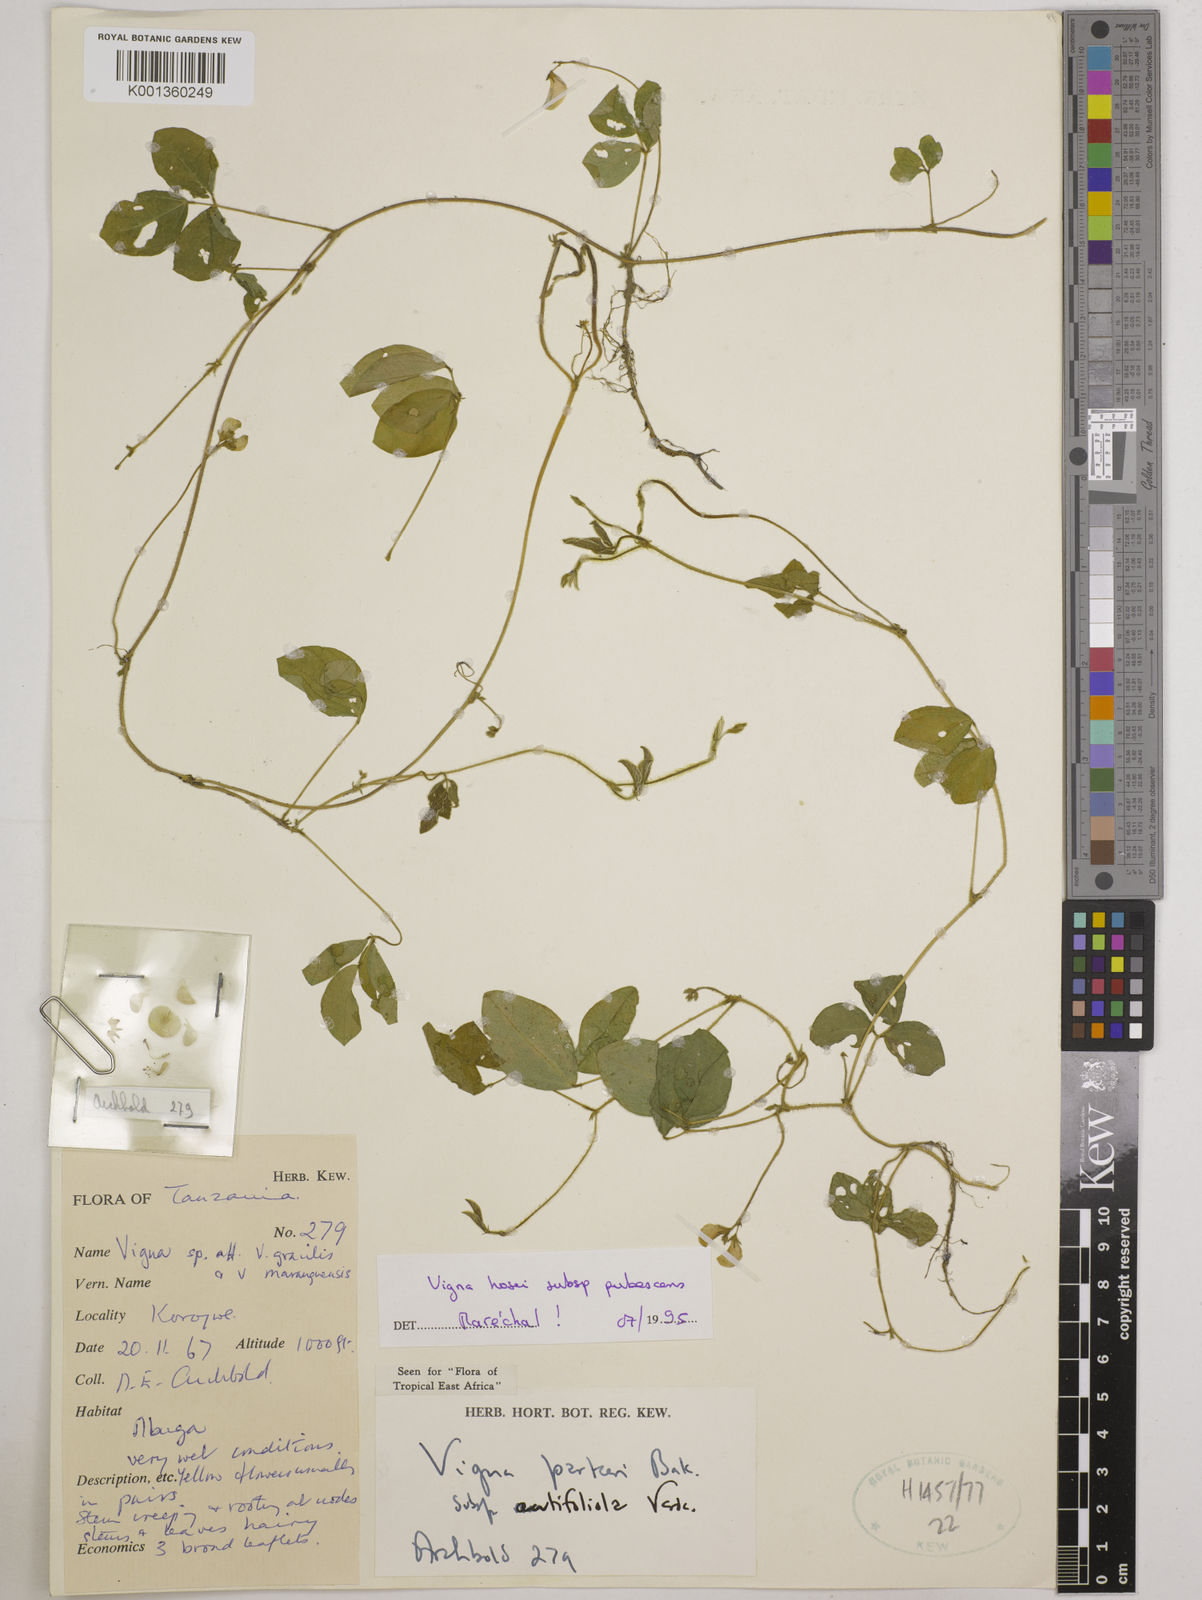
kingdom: Plantae
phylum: Tracheophyta
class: Magnoliopsida
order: Fabales
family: Fabaceae
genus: Vigna
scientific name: Vigna
